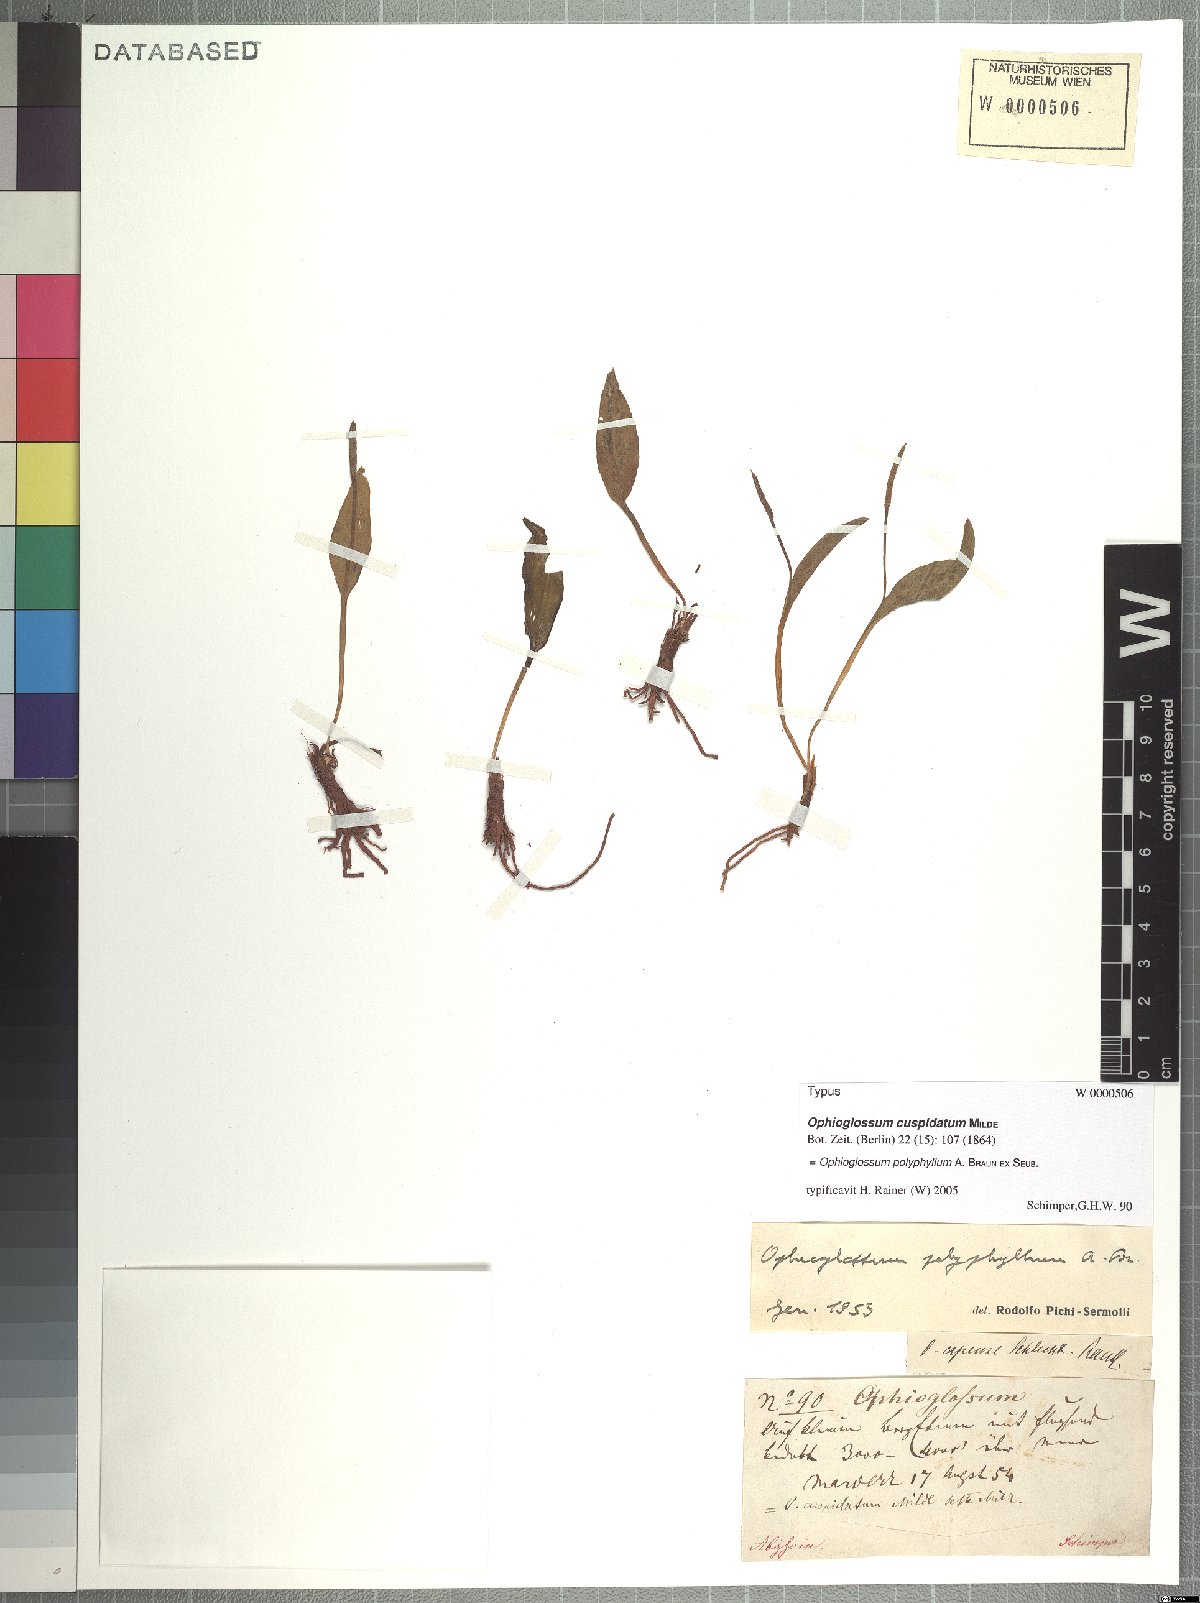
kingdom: Plantae
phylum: Tracheophyta
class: Polypodiopsida
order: Ophioglossales
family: Ophioglossaceae
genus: Ophioglossum
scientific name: Ophioglossum polyphyllum
